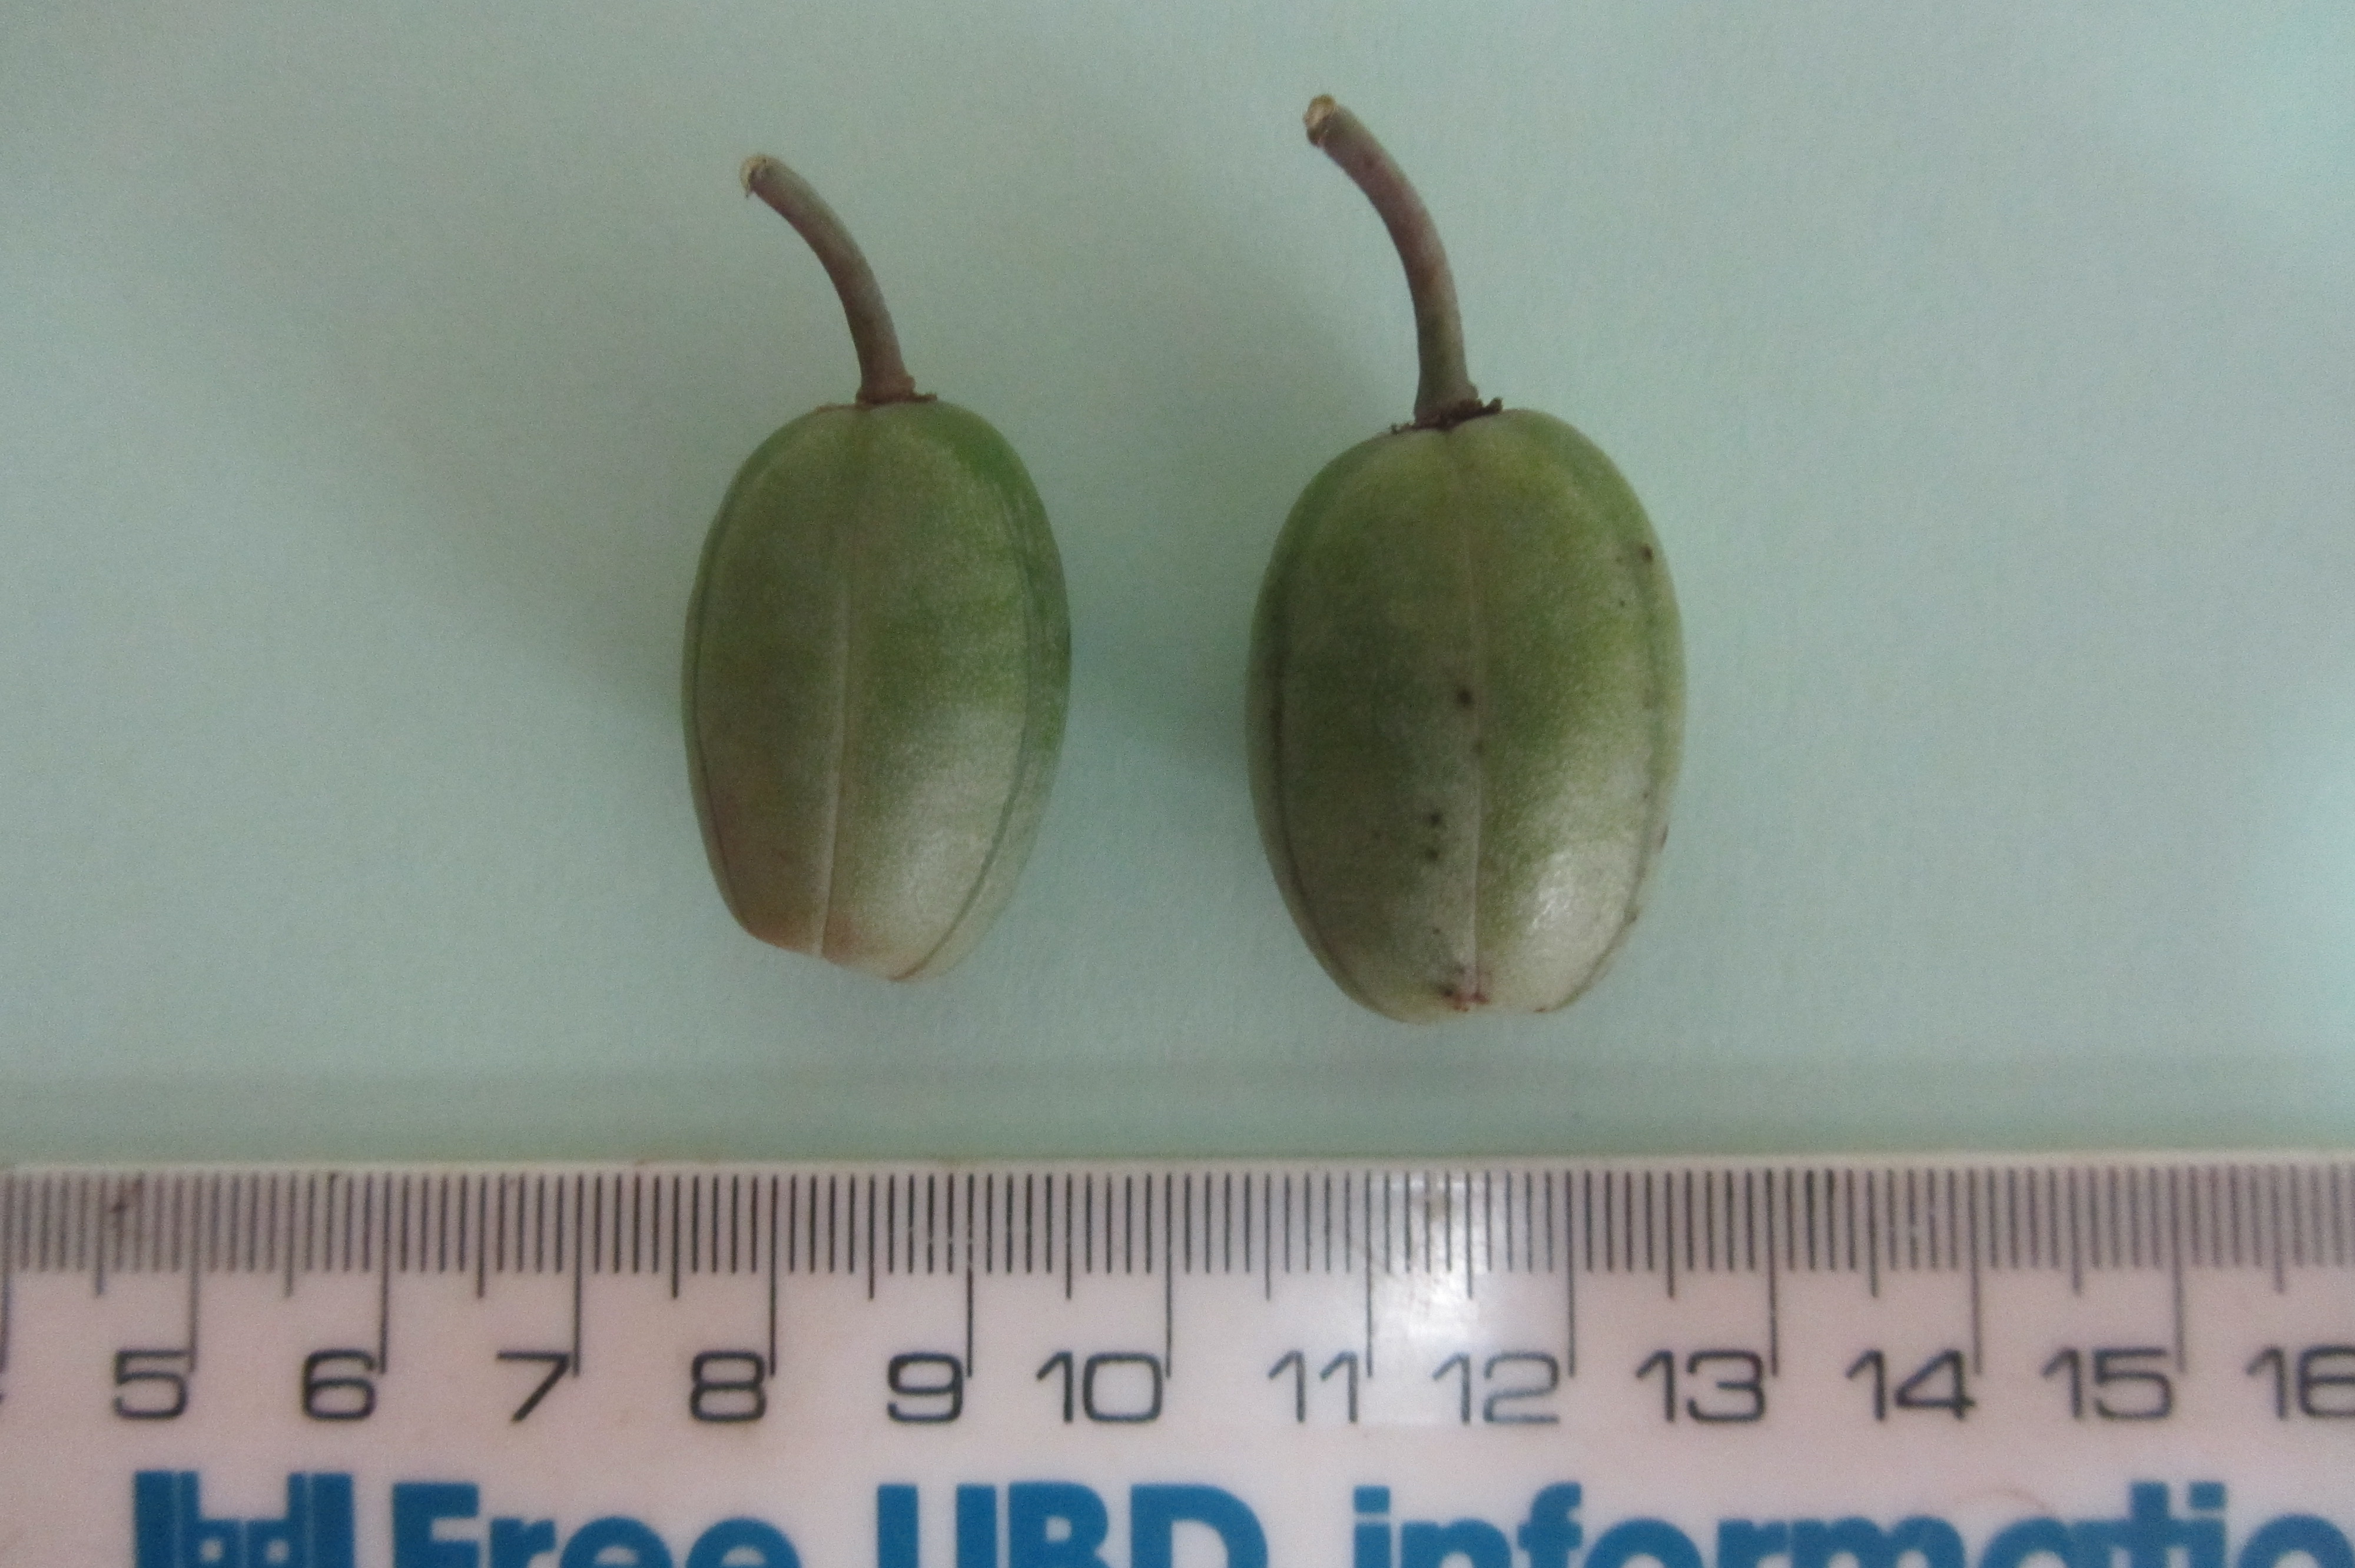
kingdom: Plantae
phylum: Tracheophyta
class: Liliopsida
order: Asparagales
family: Asphodelaceae
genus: Kumara
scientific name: Kumara plicatilis
